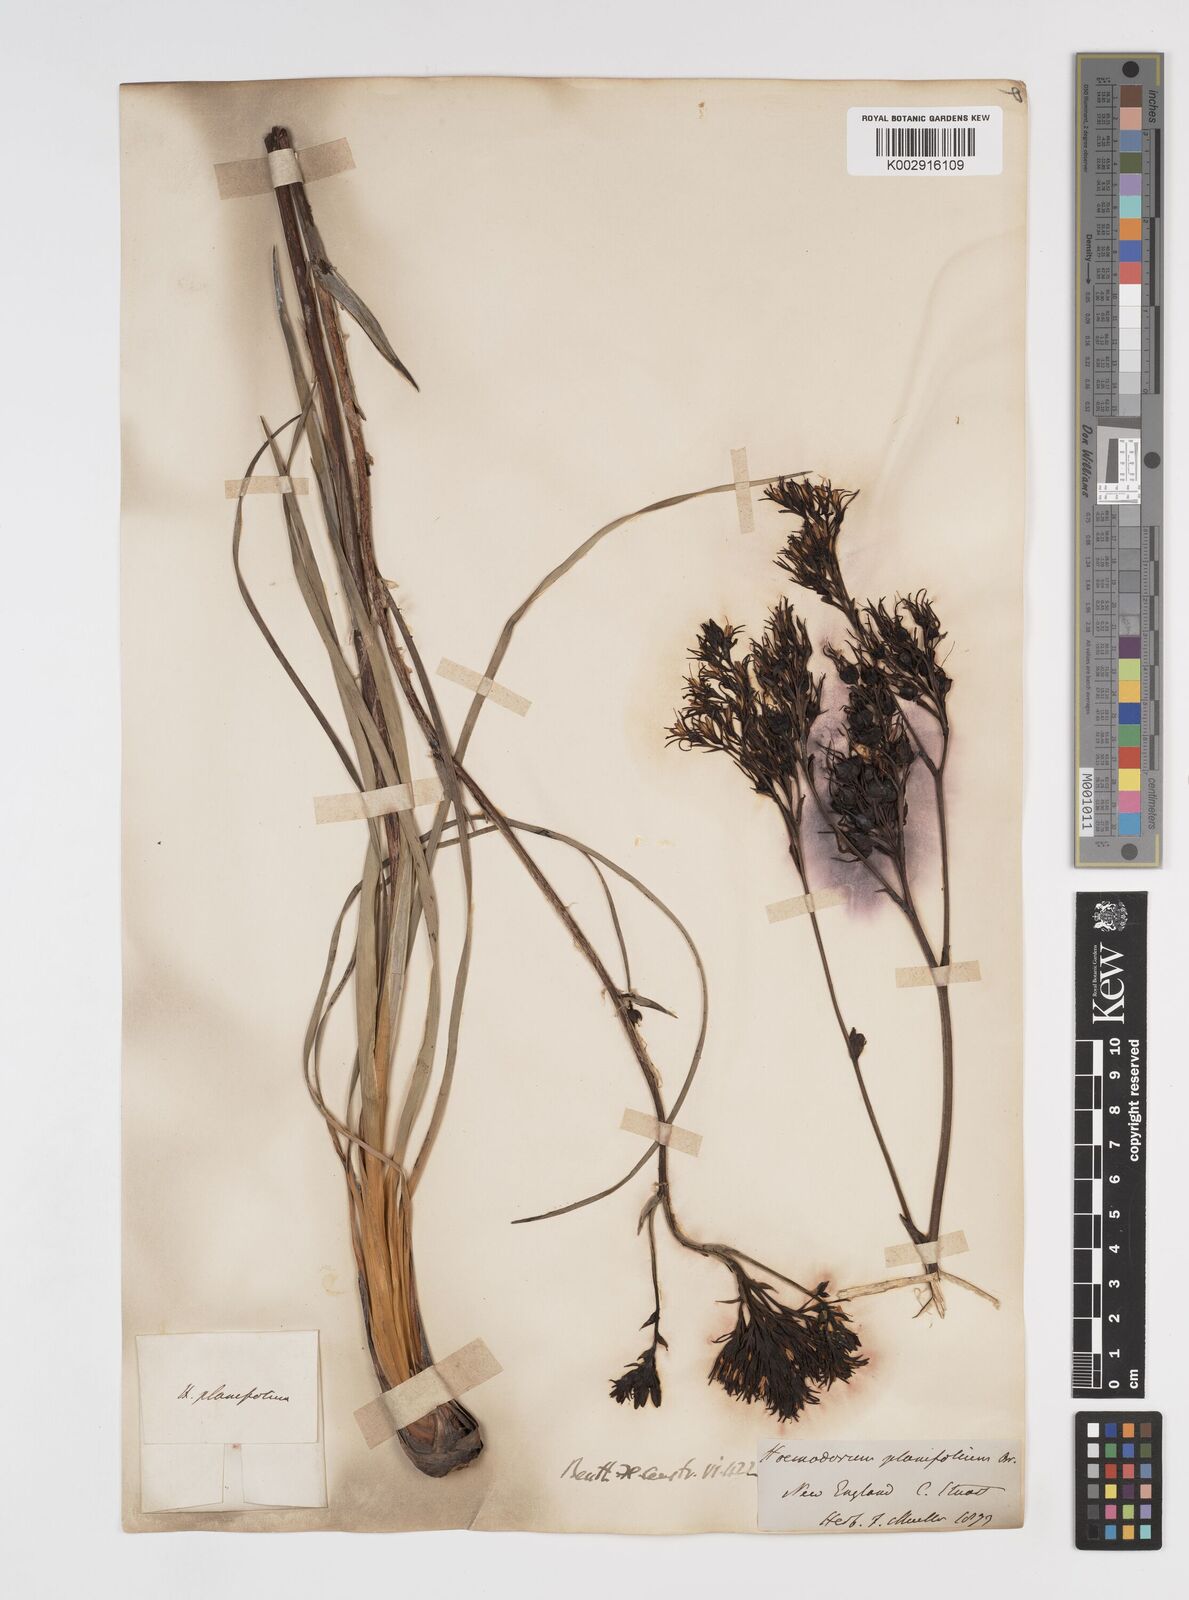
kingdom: Plantae
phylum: Tracheophyta
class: Liliopsida
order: Commelinales
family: Haemodoraceae
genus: Haemodorum
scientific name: Haemodorum planifolium
